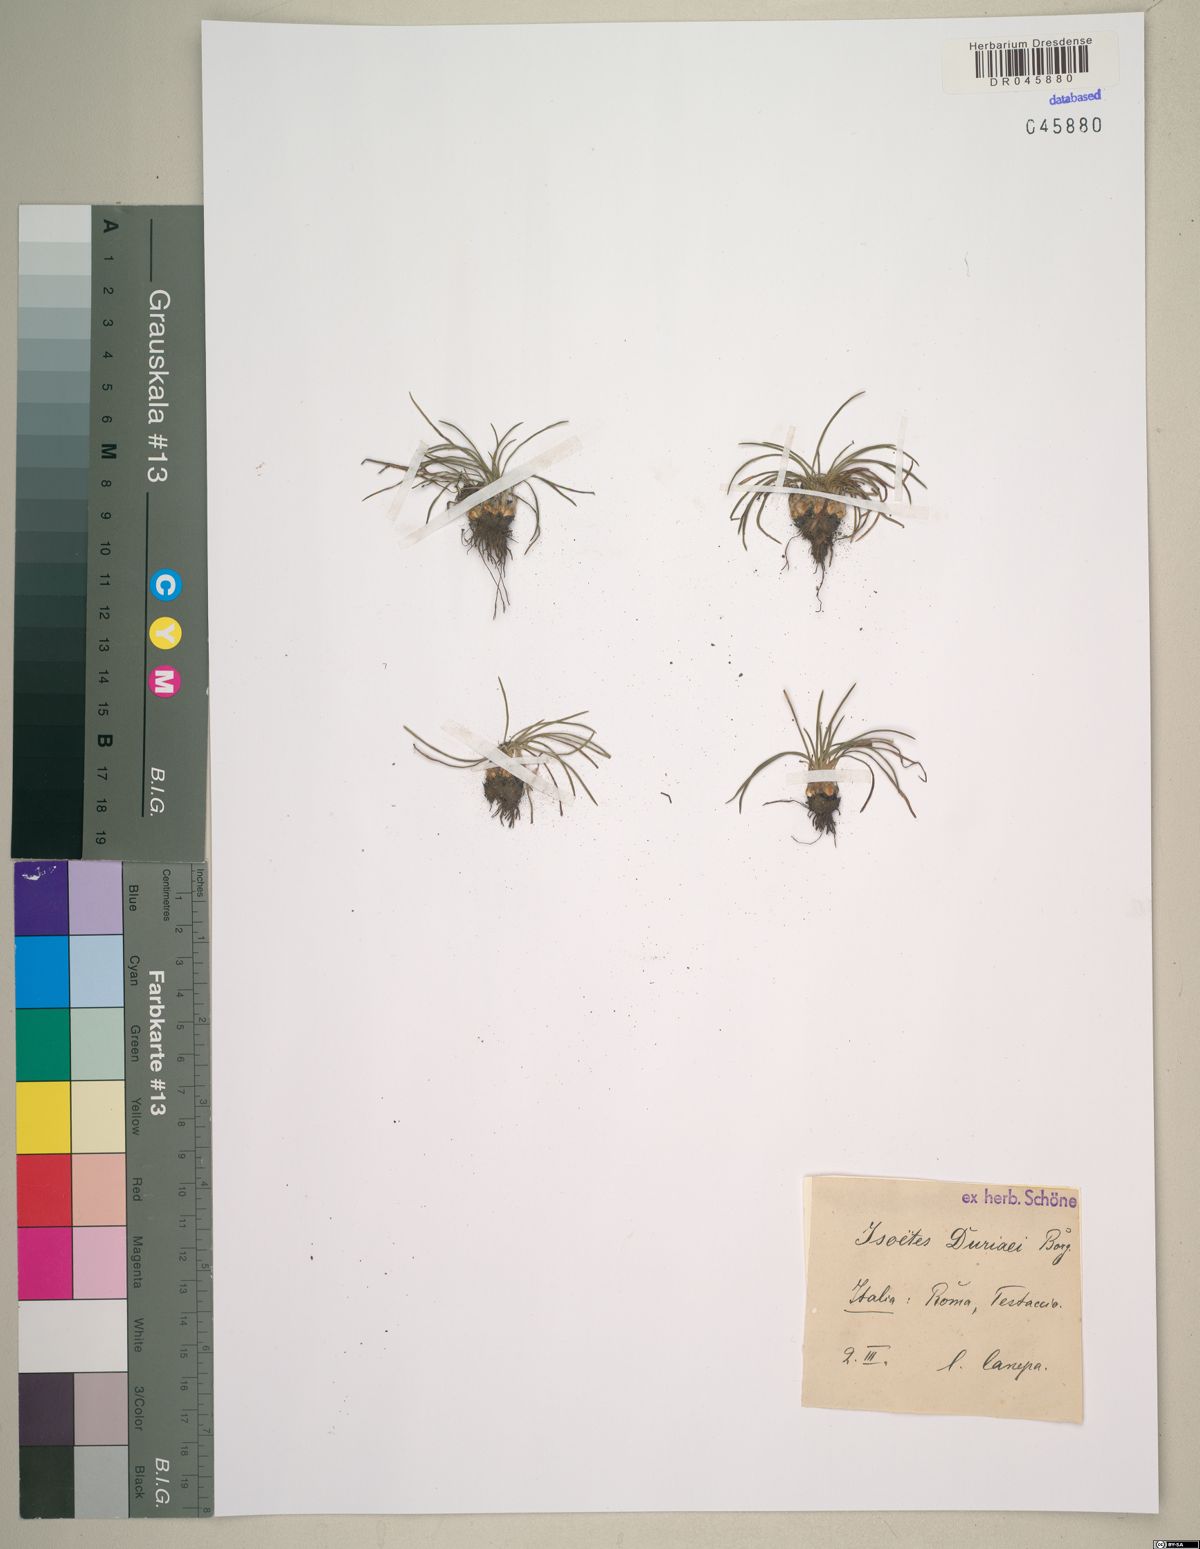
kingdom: Plantae
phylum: Tracheophyta
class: Lycopodiopsida
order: Isoetales
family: Isoetaceae
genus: Isoetes
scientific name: Isoetes duriei
